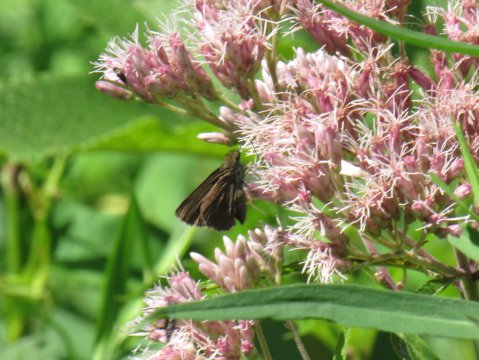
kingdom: Animalia
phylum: Arthropoda
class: Insecta
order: Lepidoptera
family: Hesperiidae
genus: Euphyes
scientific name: Euphyes vestris
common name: Dun Skipper
